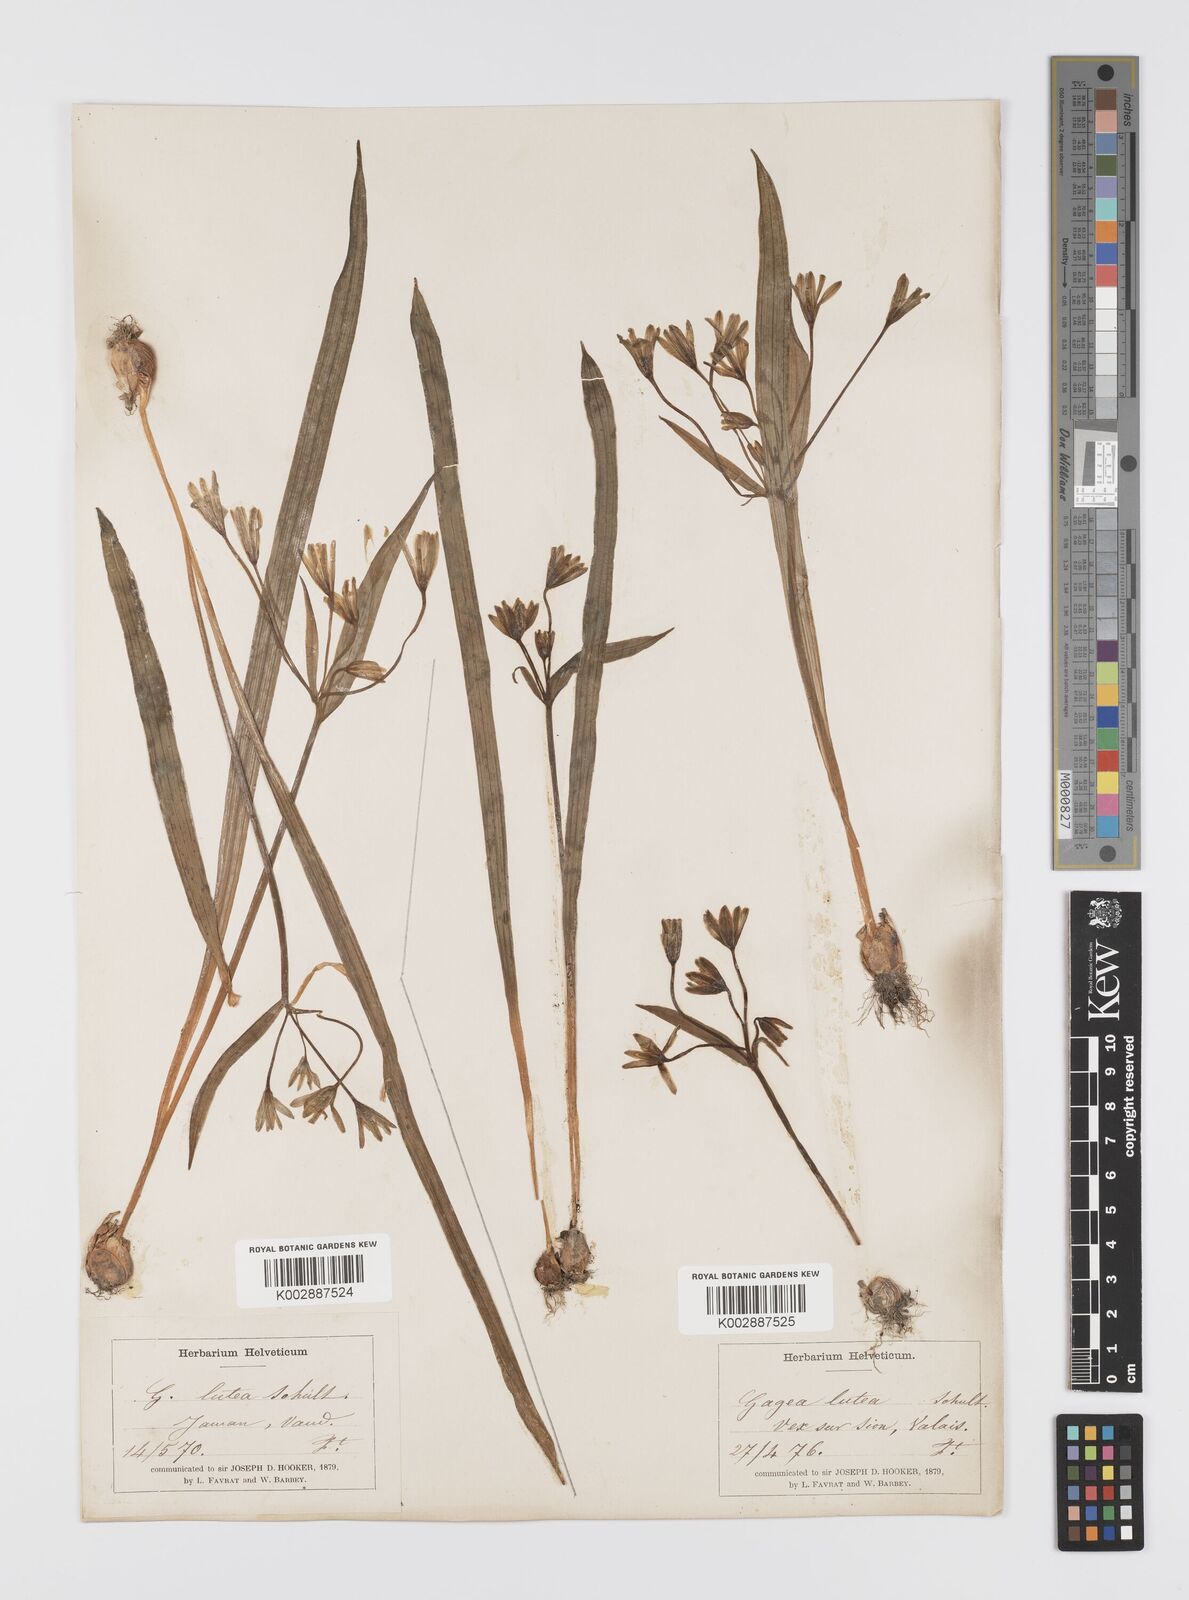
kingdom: Plantae
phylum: Tracheophyta
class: Liliopsida
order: Liliales
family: Liliaceae
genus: Gagea
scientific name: Gagea lutea
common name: Yellow star-of-bethlehem
